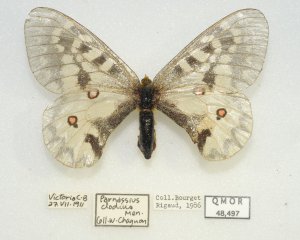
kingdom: Animalia
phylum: Arthropoda
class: Insecta
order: Lepidoptera
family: Papilionidae
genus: Parnassius
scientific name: Parnassius clodius
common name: Clodius Parnassian
